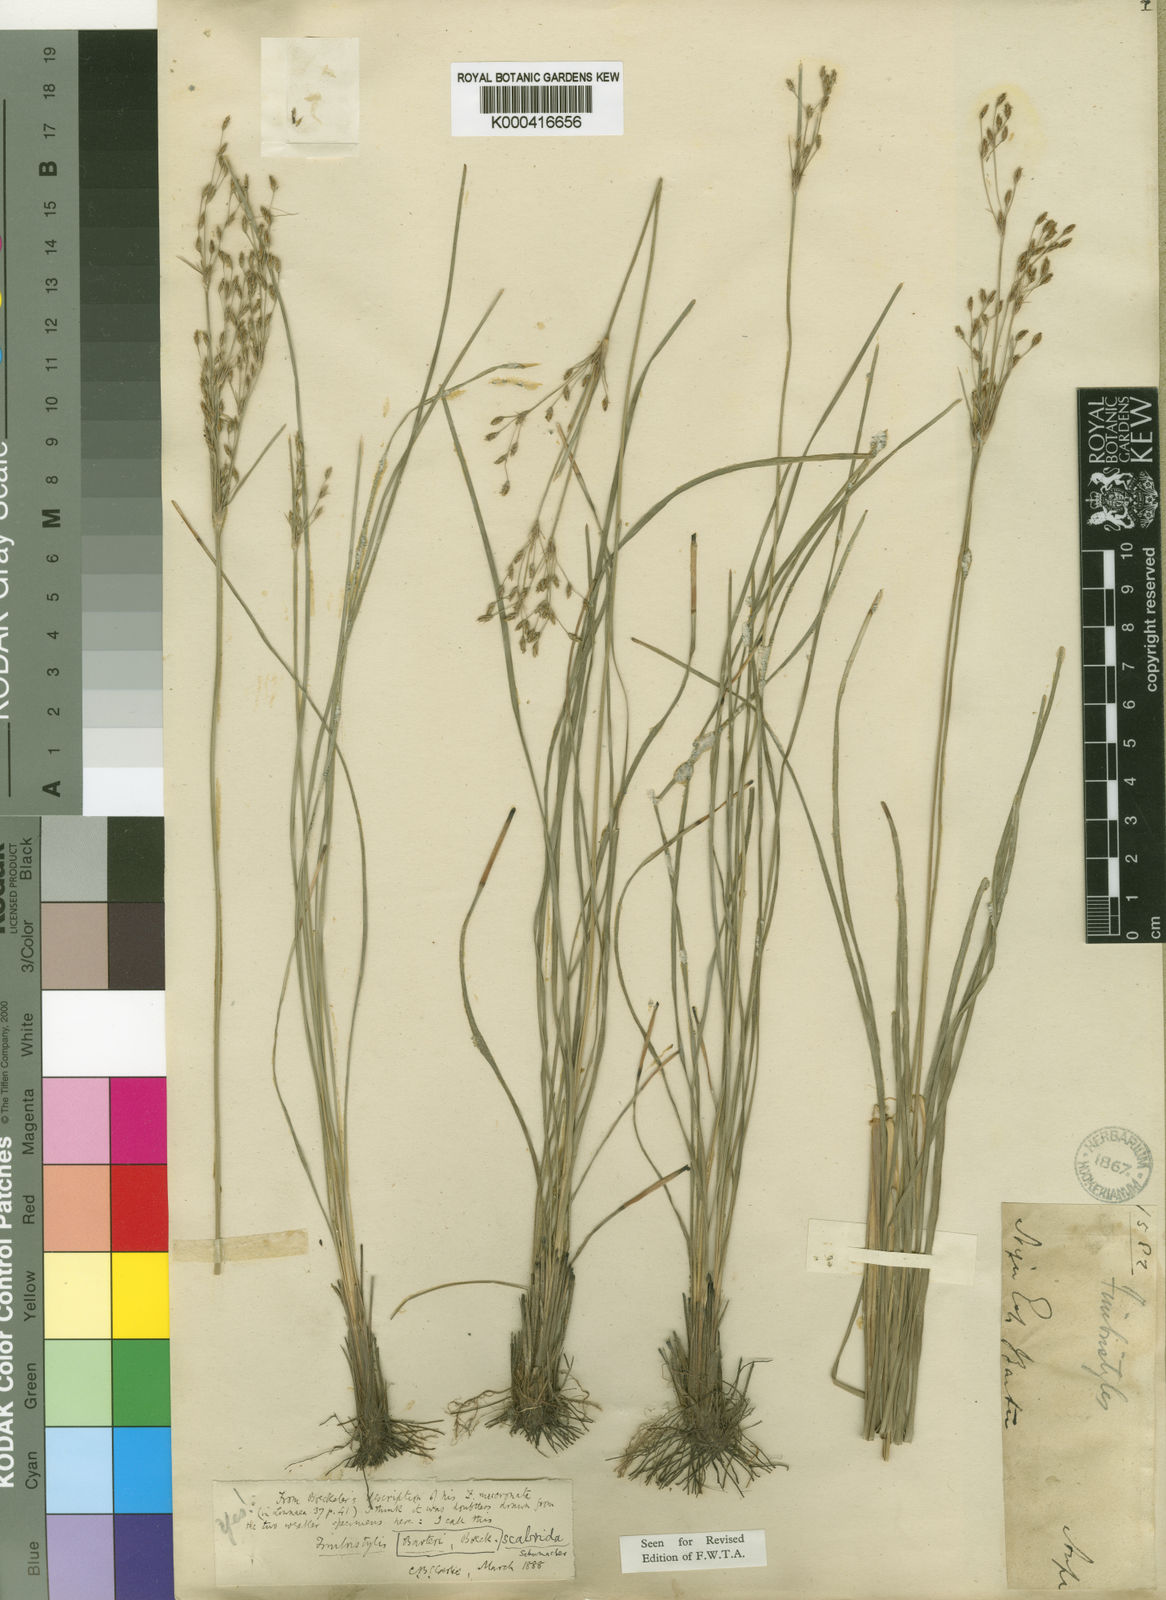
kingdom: Plantae
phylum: Tracheophyta
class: Liliopsida
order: Poales
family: Cyperaceae
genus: Fimbristylis
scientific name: Fimbristylis scabrida
